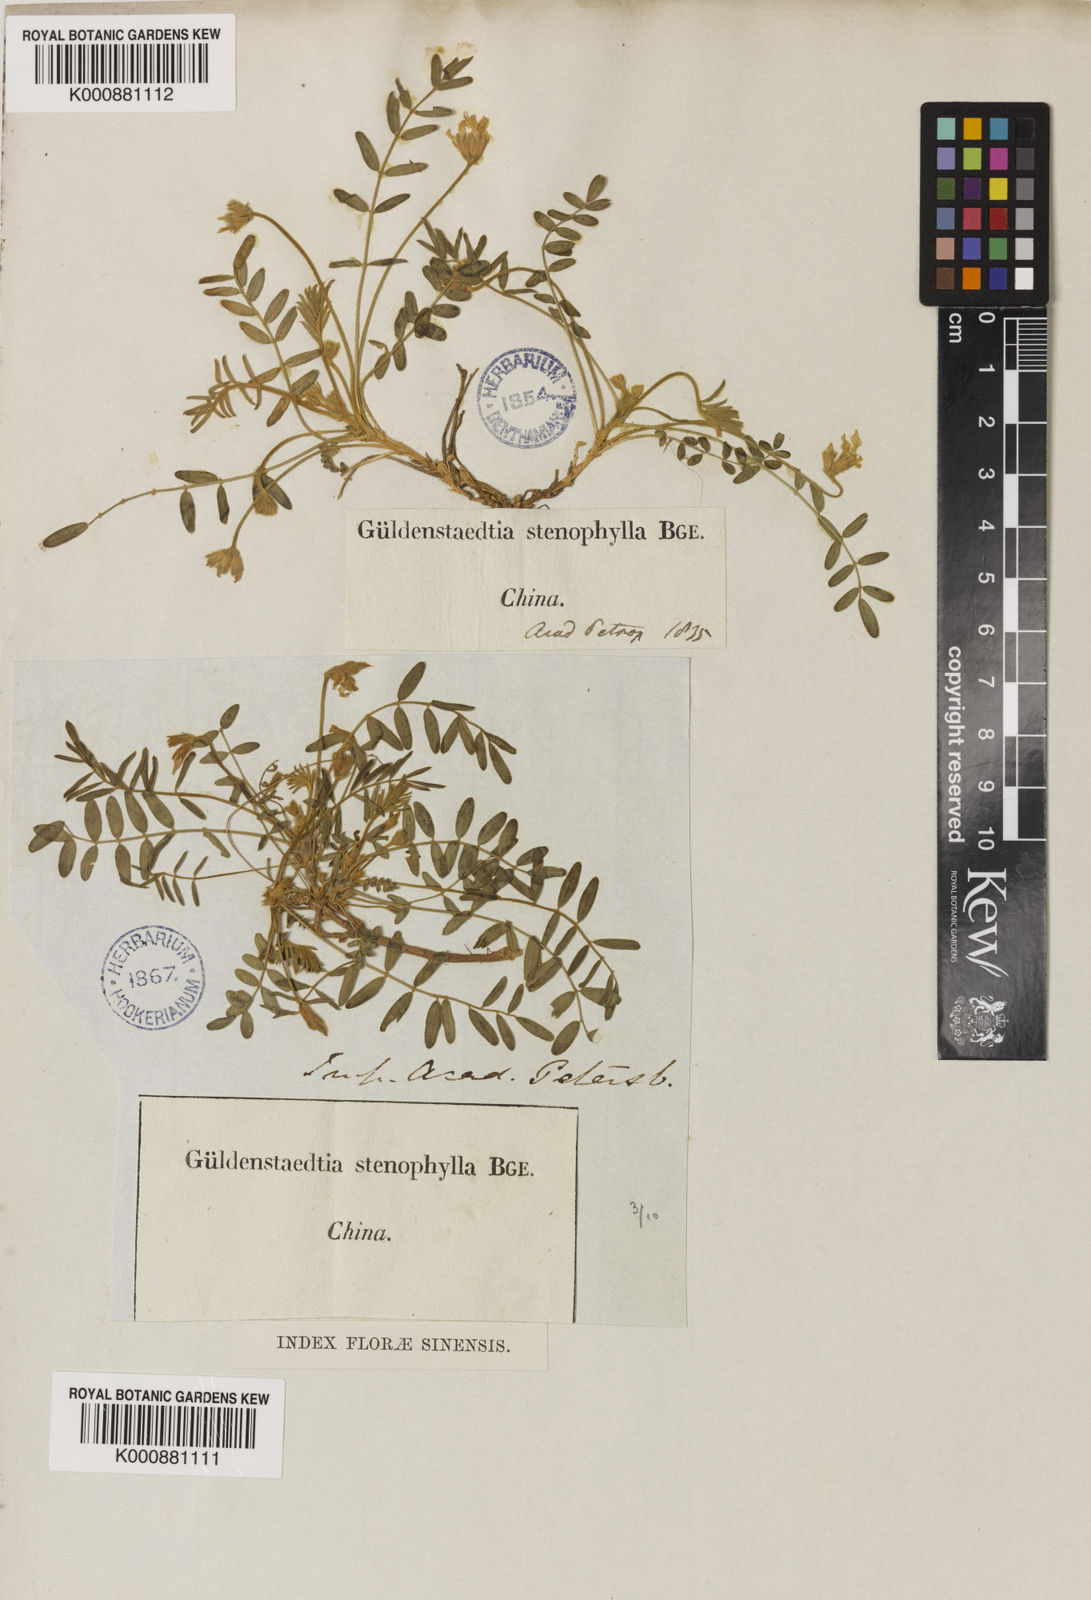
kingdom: Plantae
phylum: Tracheophyta
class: Magnoliopsida
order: Fabales
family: Fabaceae
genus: Gueldenstaedtia
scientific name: Gueldenstaedtia verna
